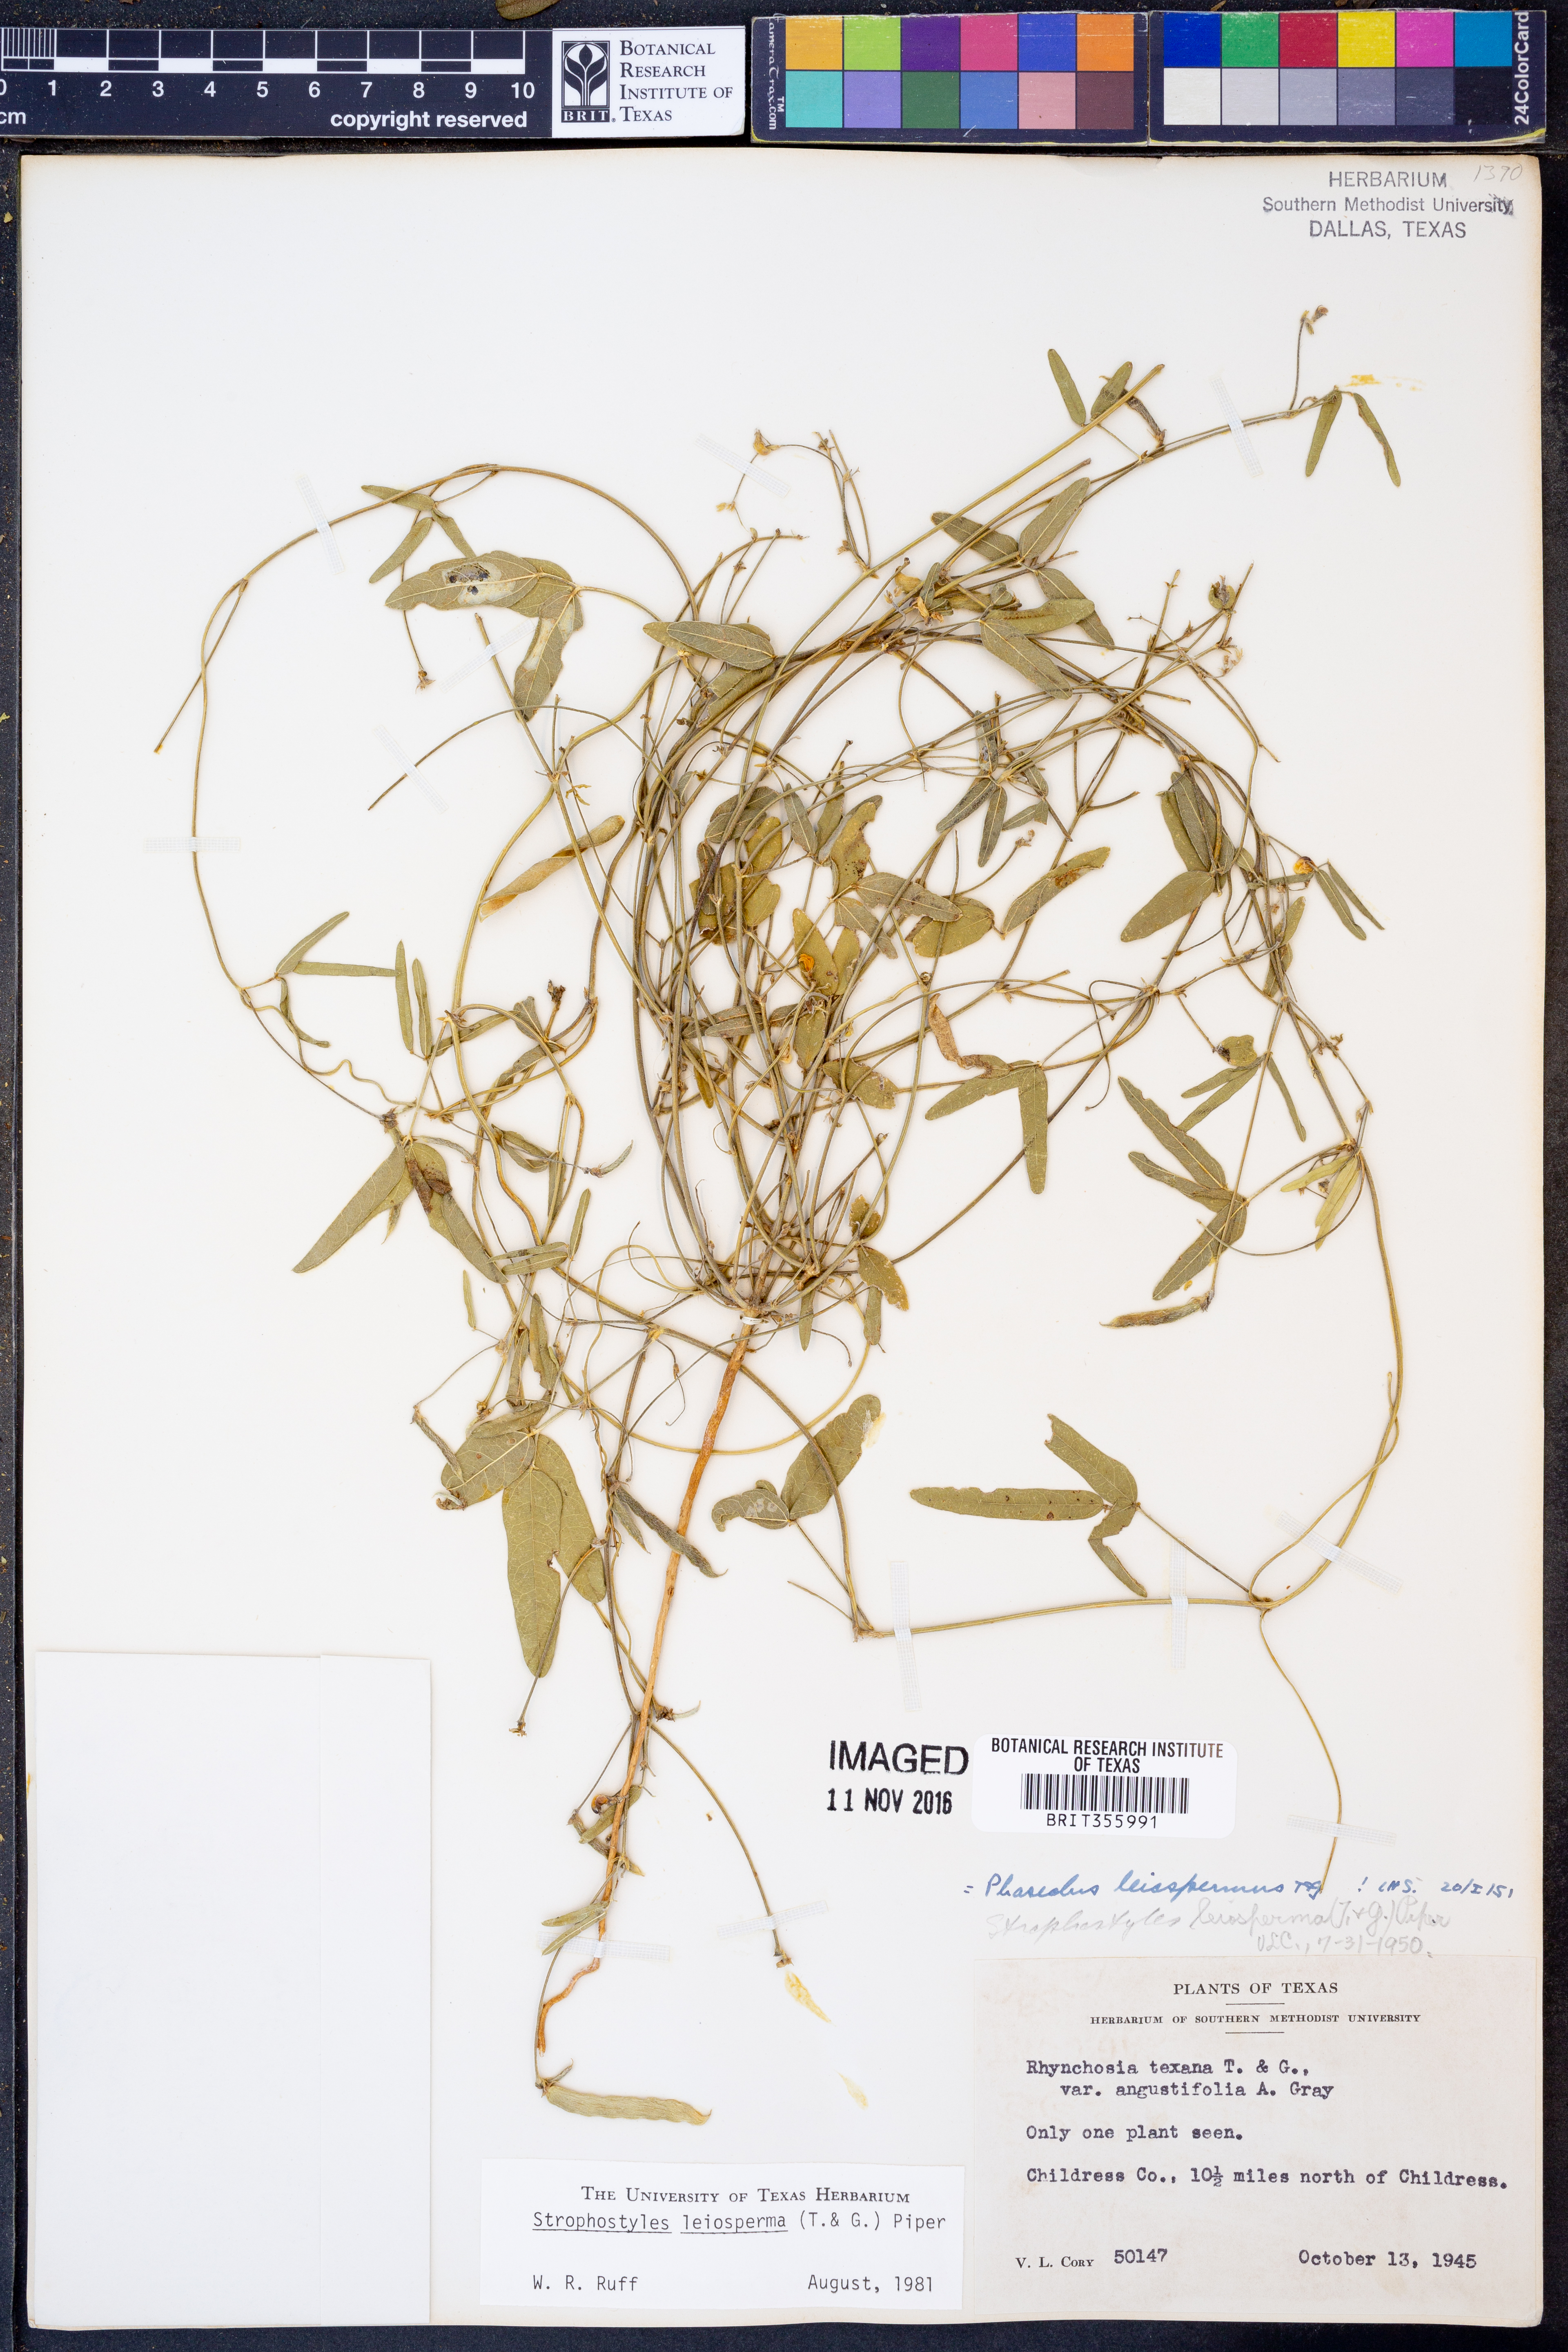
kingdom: Plantae
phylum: Tracheophyta
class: Magnoliopsida
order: Fabales
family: Fabaceae
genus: Strophostyles
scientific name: Strophostyles leiosperma
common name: Smooth-seed wild bean
